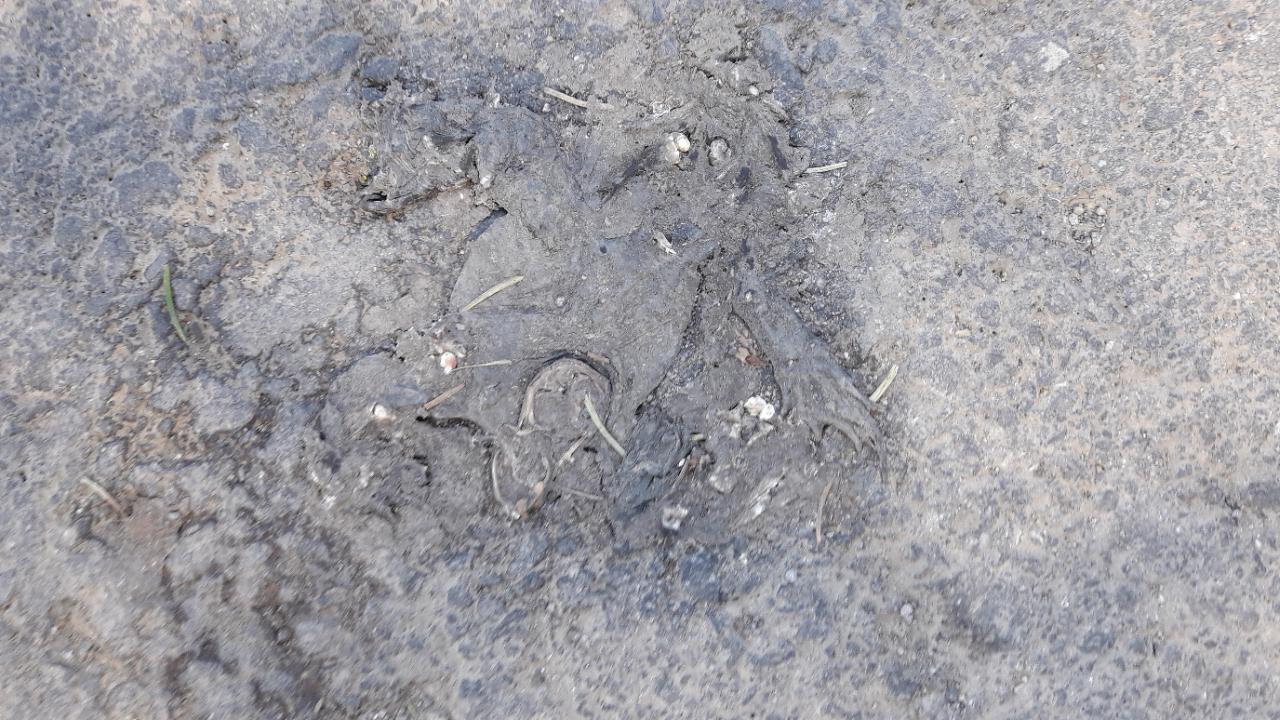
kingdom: Animalia
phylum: Chordata
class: Amphibia
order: Anura
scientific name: Anura
